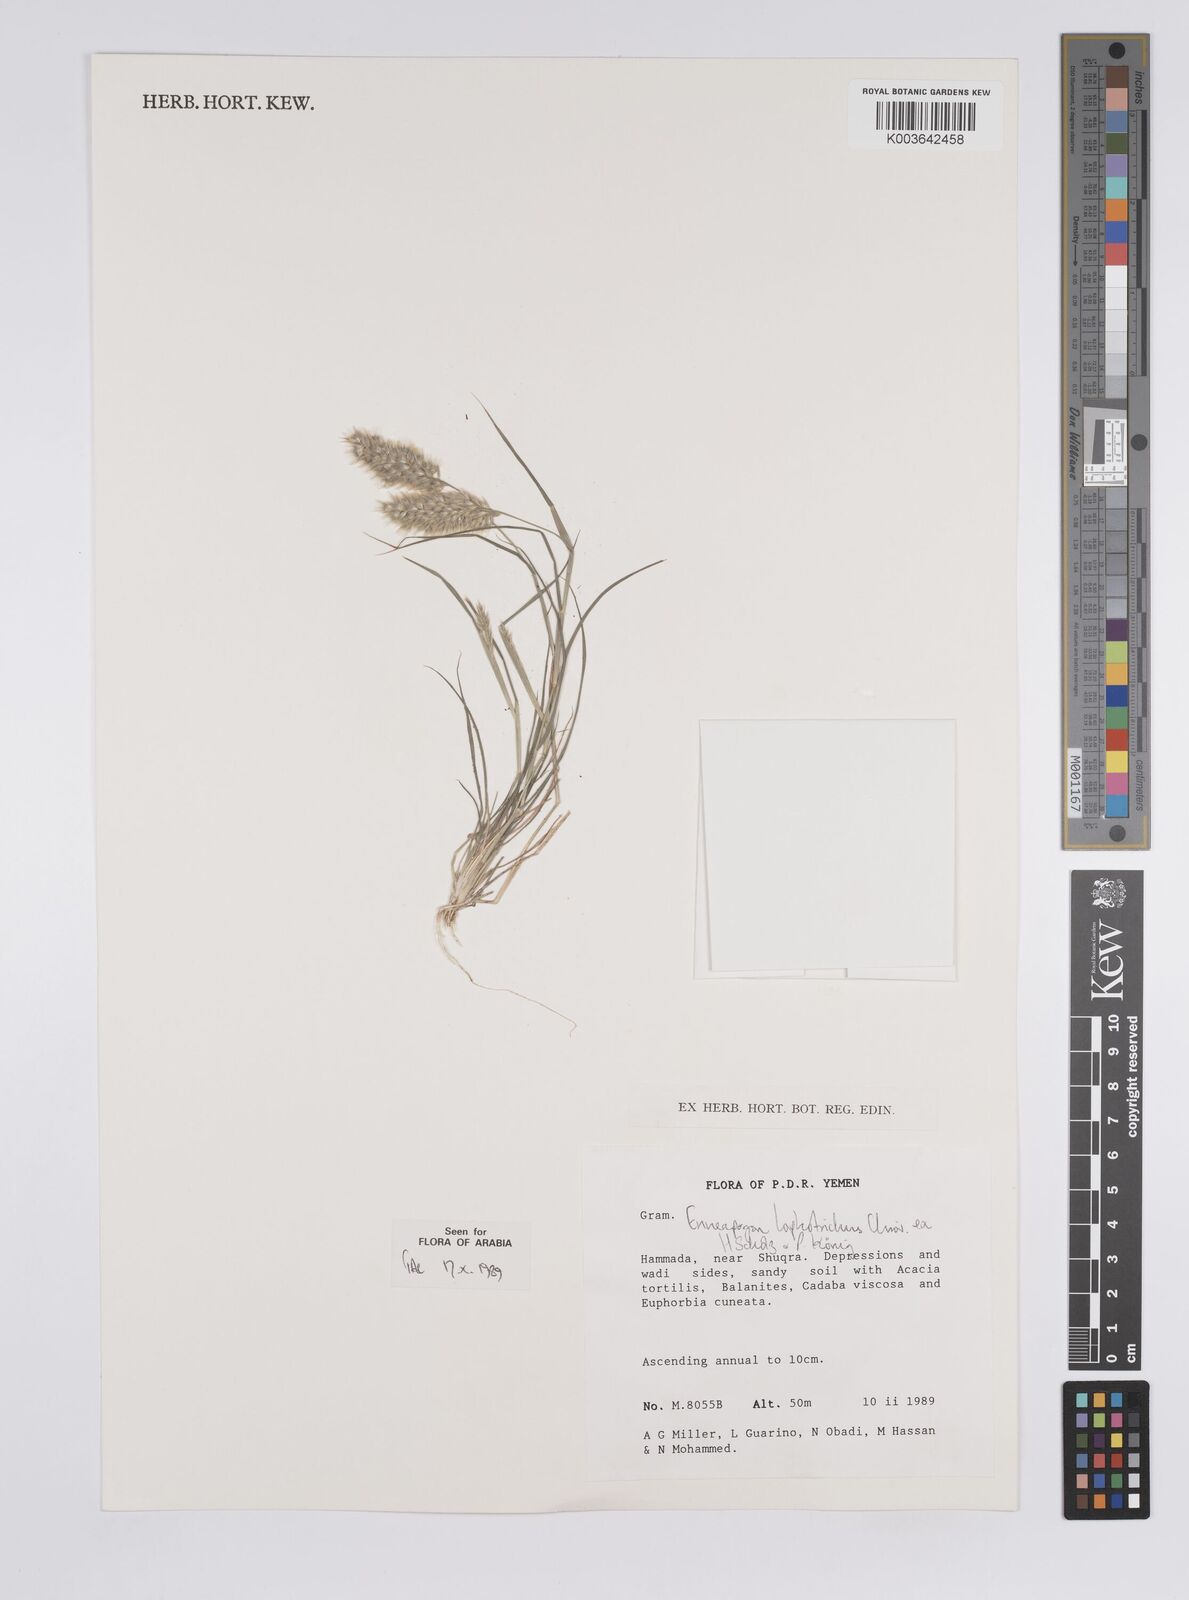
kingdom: Plantae
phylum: Tracheophyta
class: Liliopsida
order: Poales
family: Poaceae
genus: Enneapogon
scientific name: Enneapogon lophotrichus
